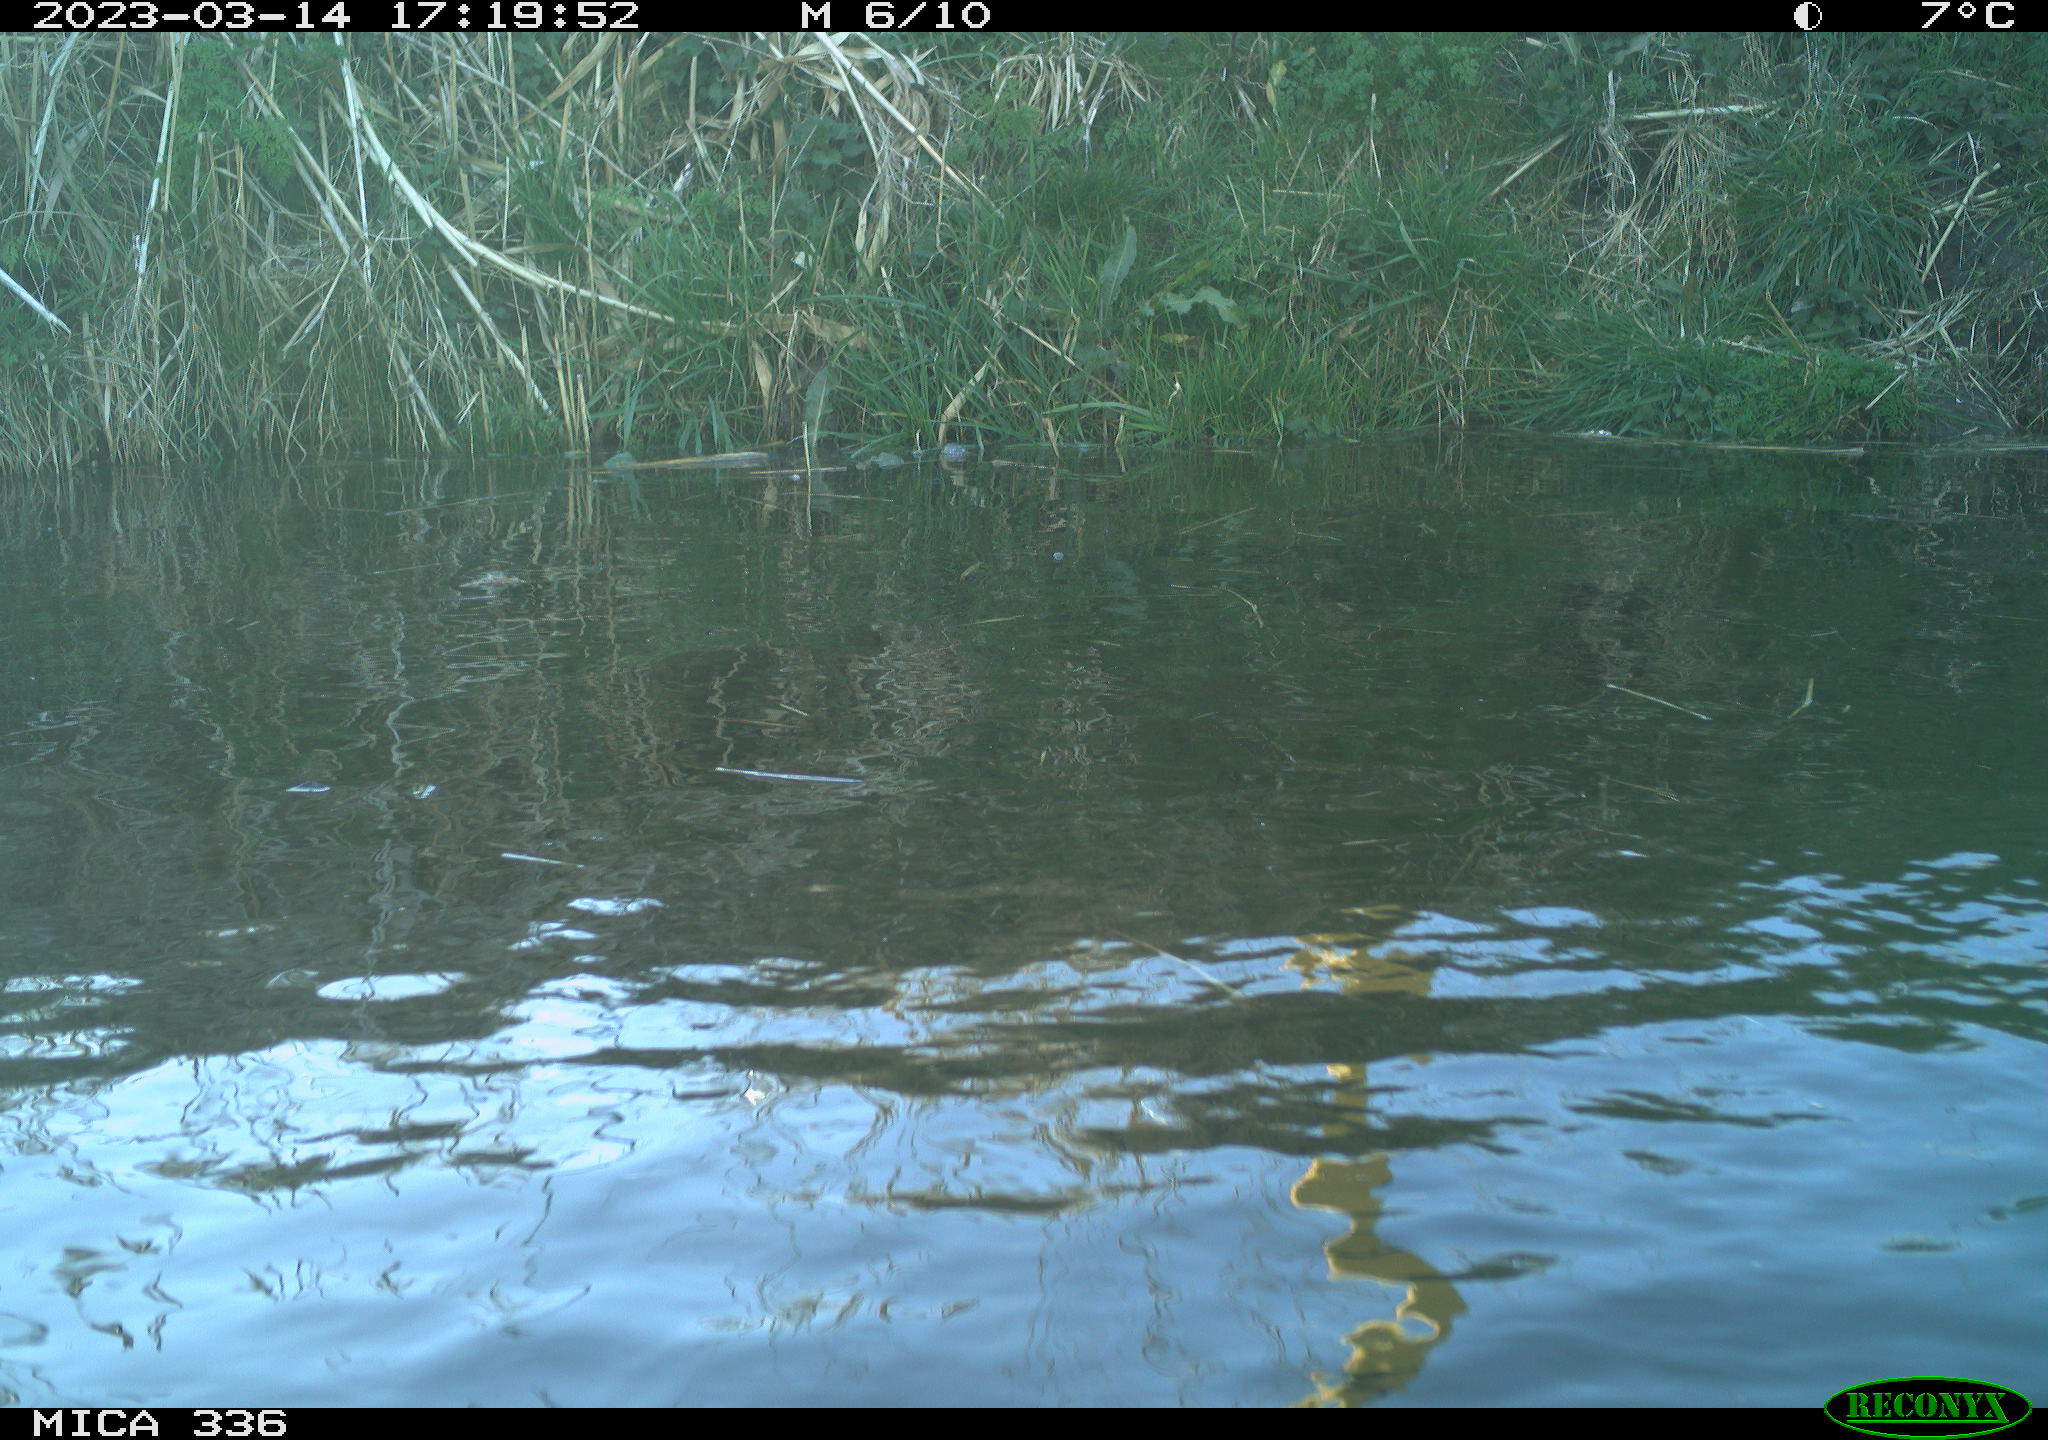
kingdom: Animalia
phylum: Chordata
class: Aves
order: Anseriformes
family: Anatidae
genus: Anas
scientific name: Anas
